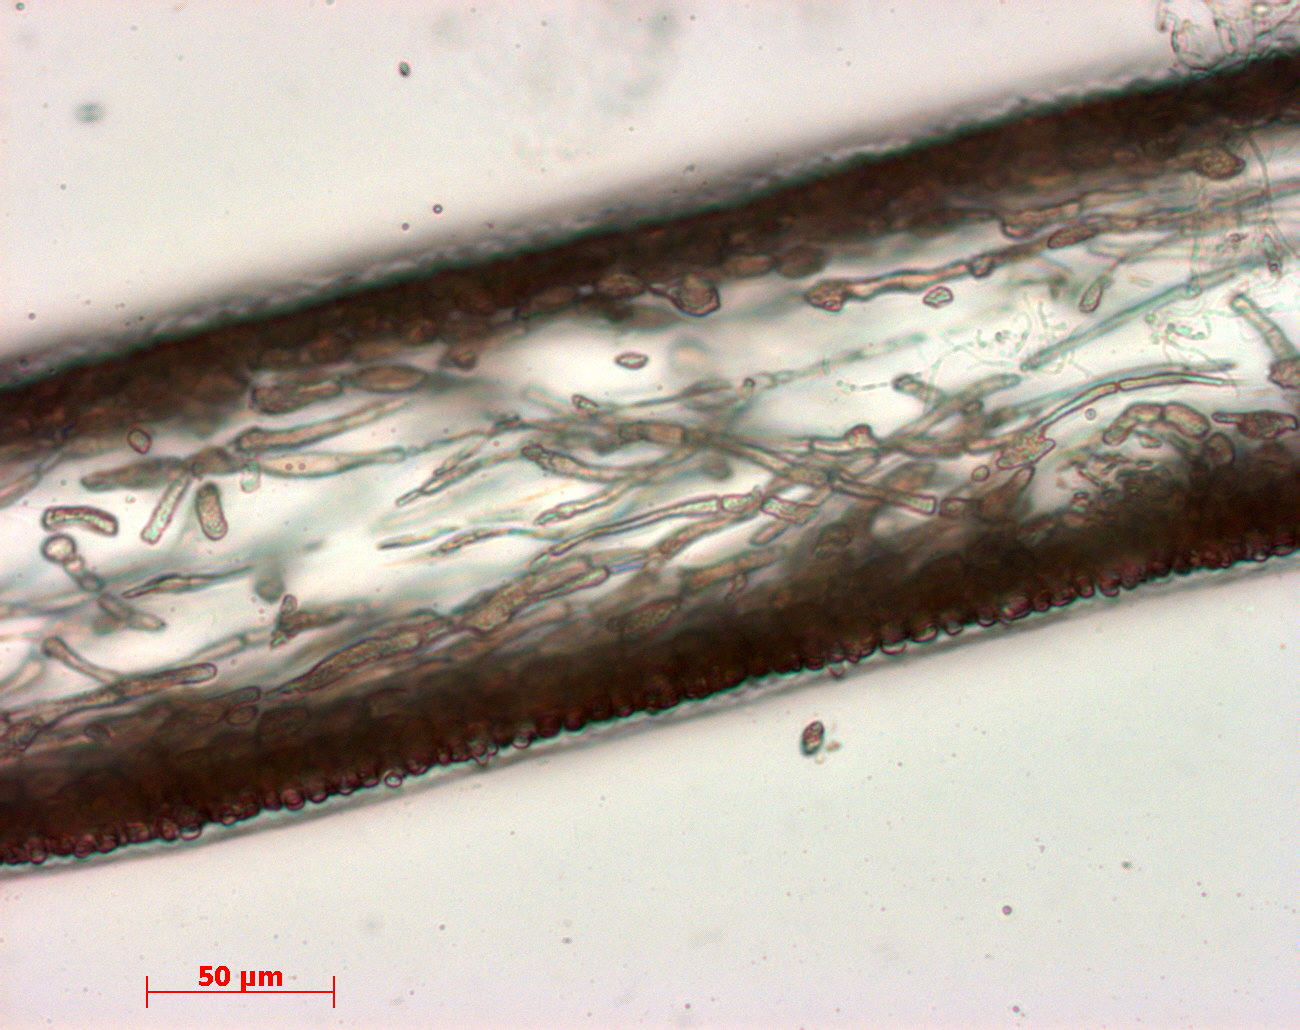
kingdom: Plantae
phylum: Rhodophyta
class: Florideophyceae
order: Halymeniales
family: Halymeniaceae
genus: Cryptonemia
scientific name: Cryptonemia latissima
